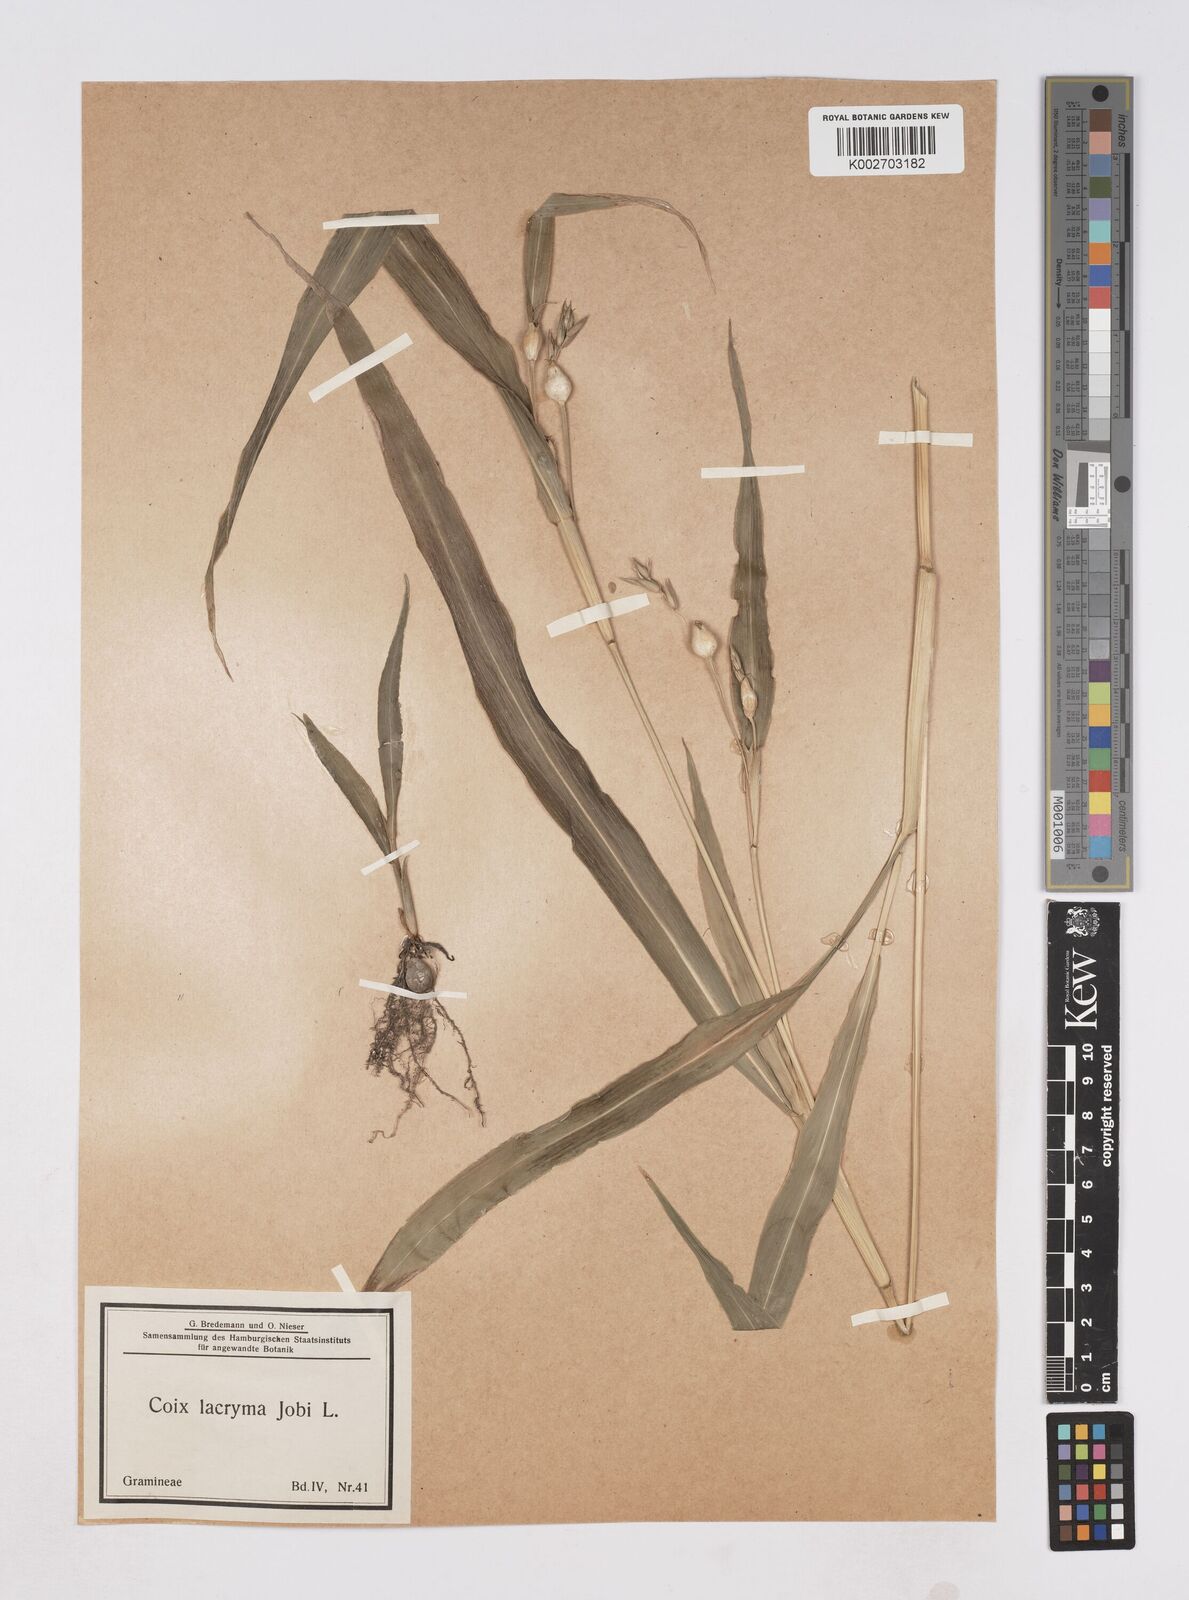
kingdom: Plantae
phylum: Tracheophyta
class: Liliopsida
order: Poales
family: Poaceae
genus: Coix
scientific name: Coix lacryma-jobi
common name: Job's tears
